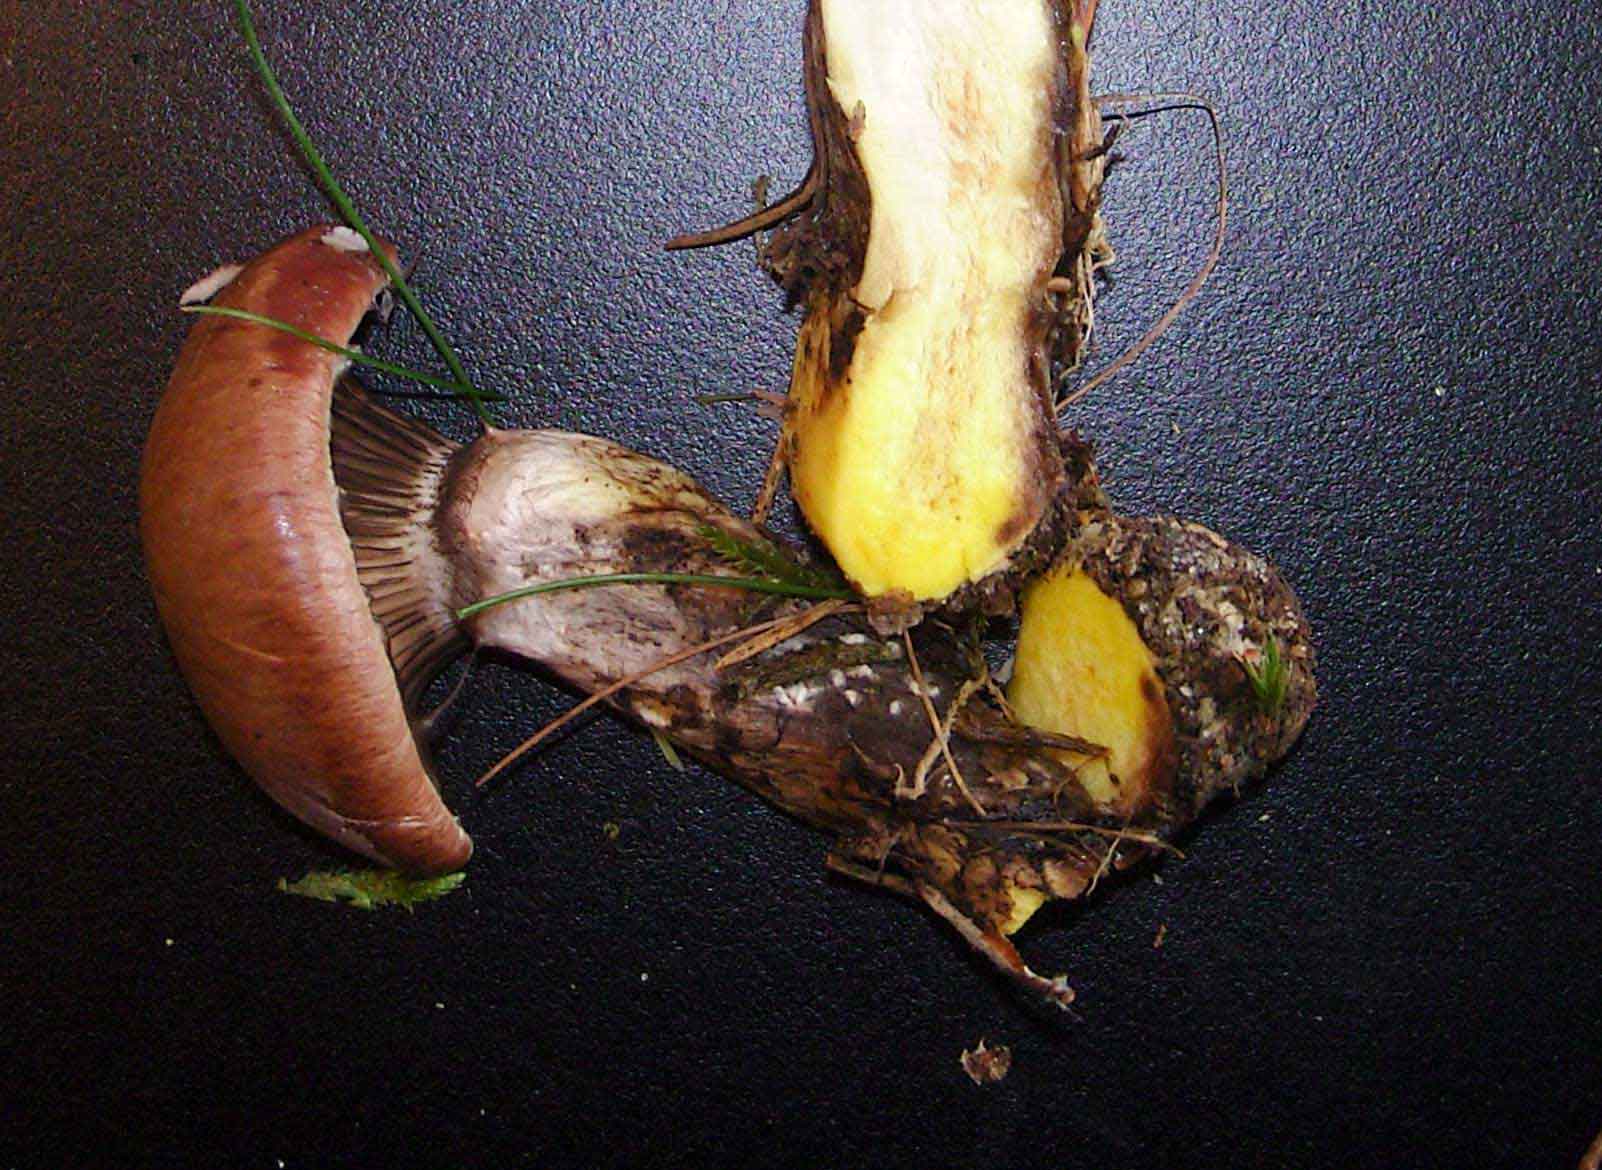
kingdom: Fungi
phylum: Basidiomycota
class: Agaricomycetes
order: Boletales
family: Gomphidiaceae
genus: Gomphidius
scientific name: Gomphidius glutinosus
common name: grå slimslør
